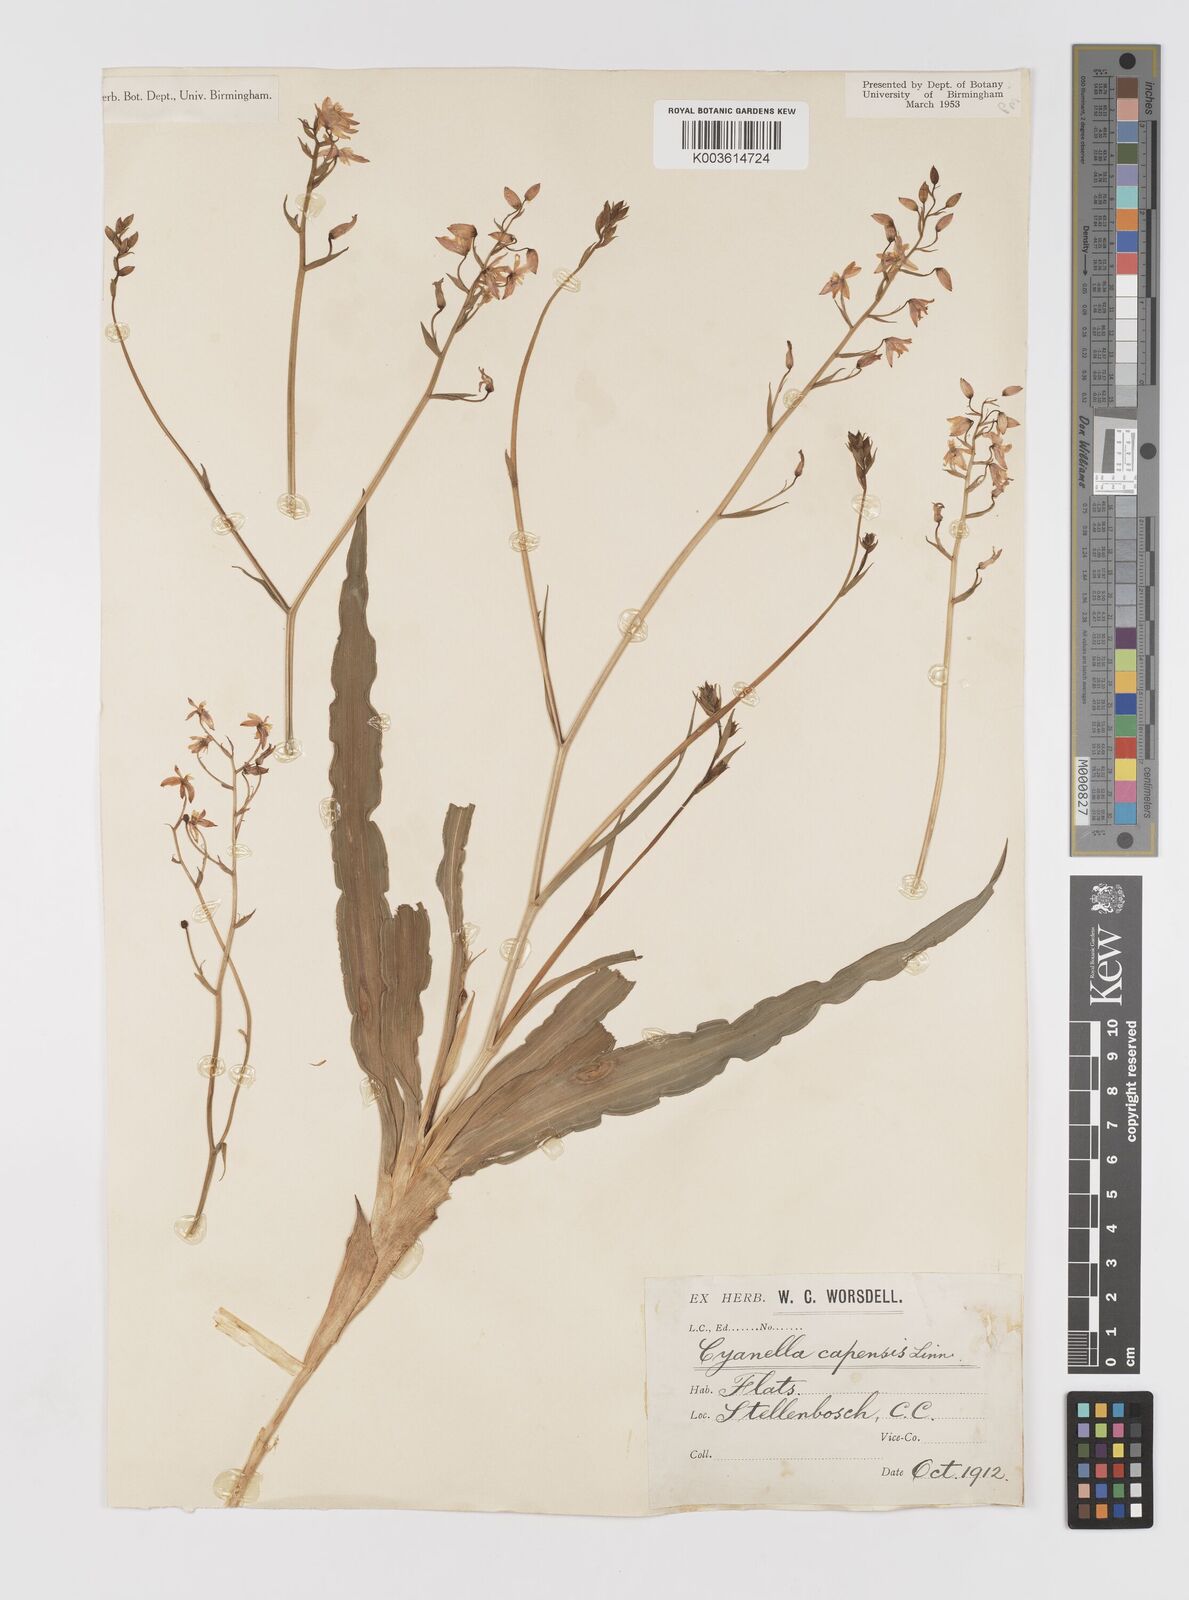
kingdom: Plantae
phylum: Tracheophyta
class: Liliopsida
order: Asparagales
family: Tecophilaeaceae
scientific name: Tecophilaeaceae
